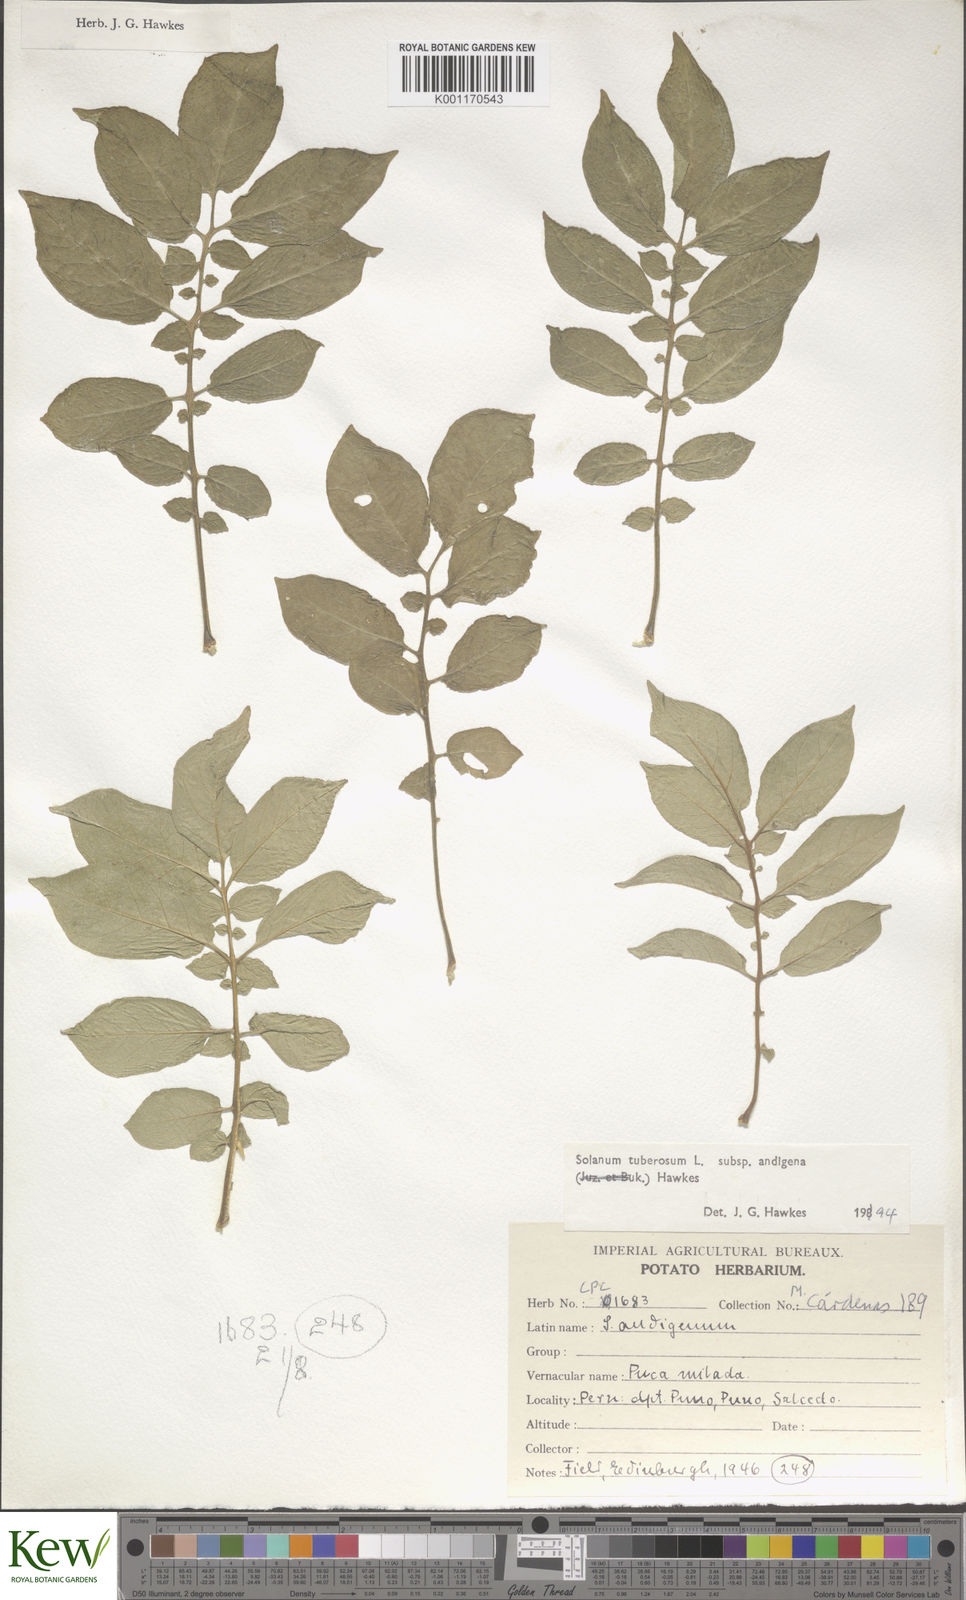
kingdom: Plantae
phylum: Tracheophyta
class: Magnoliopsida
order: Solanales
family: Solanaceae
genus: Solanum
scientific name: Solanum tuberosum
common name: Potato
